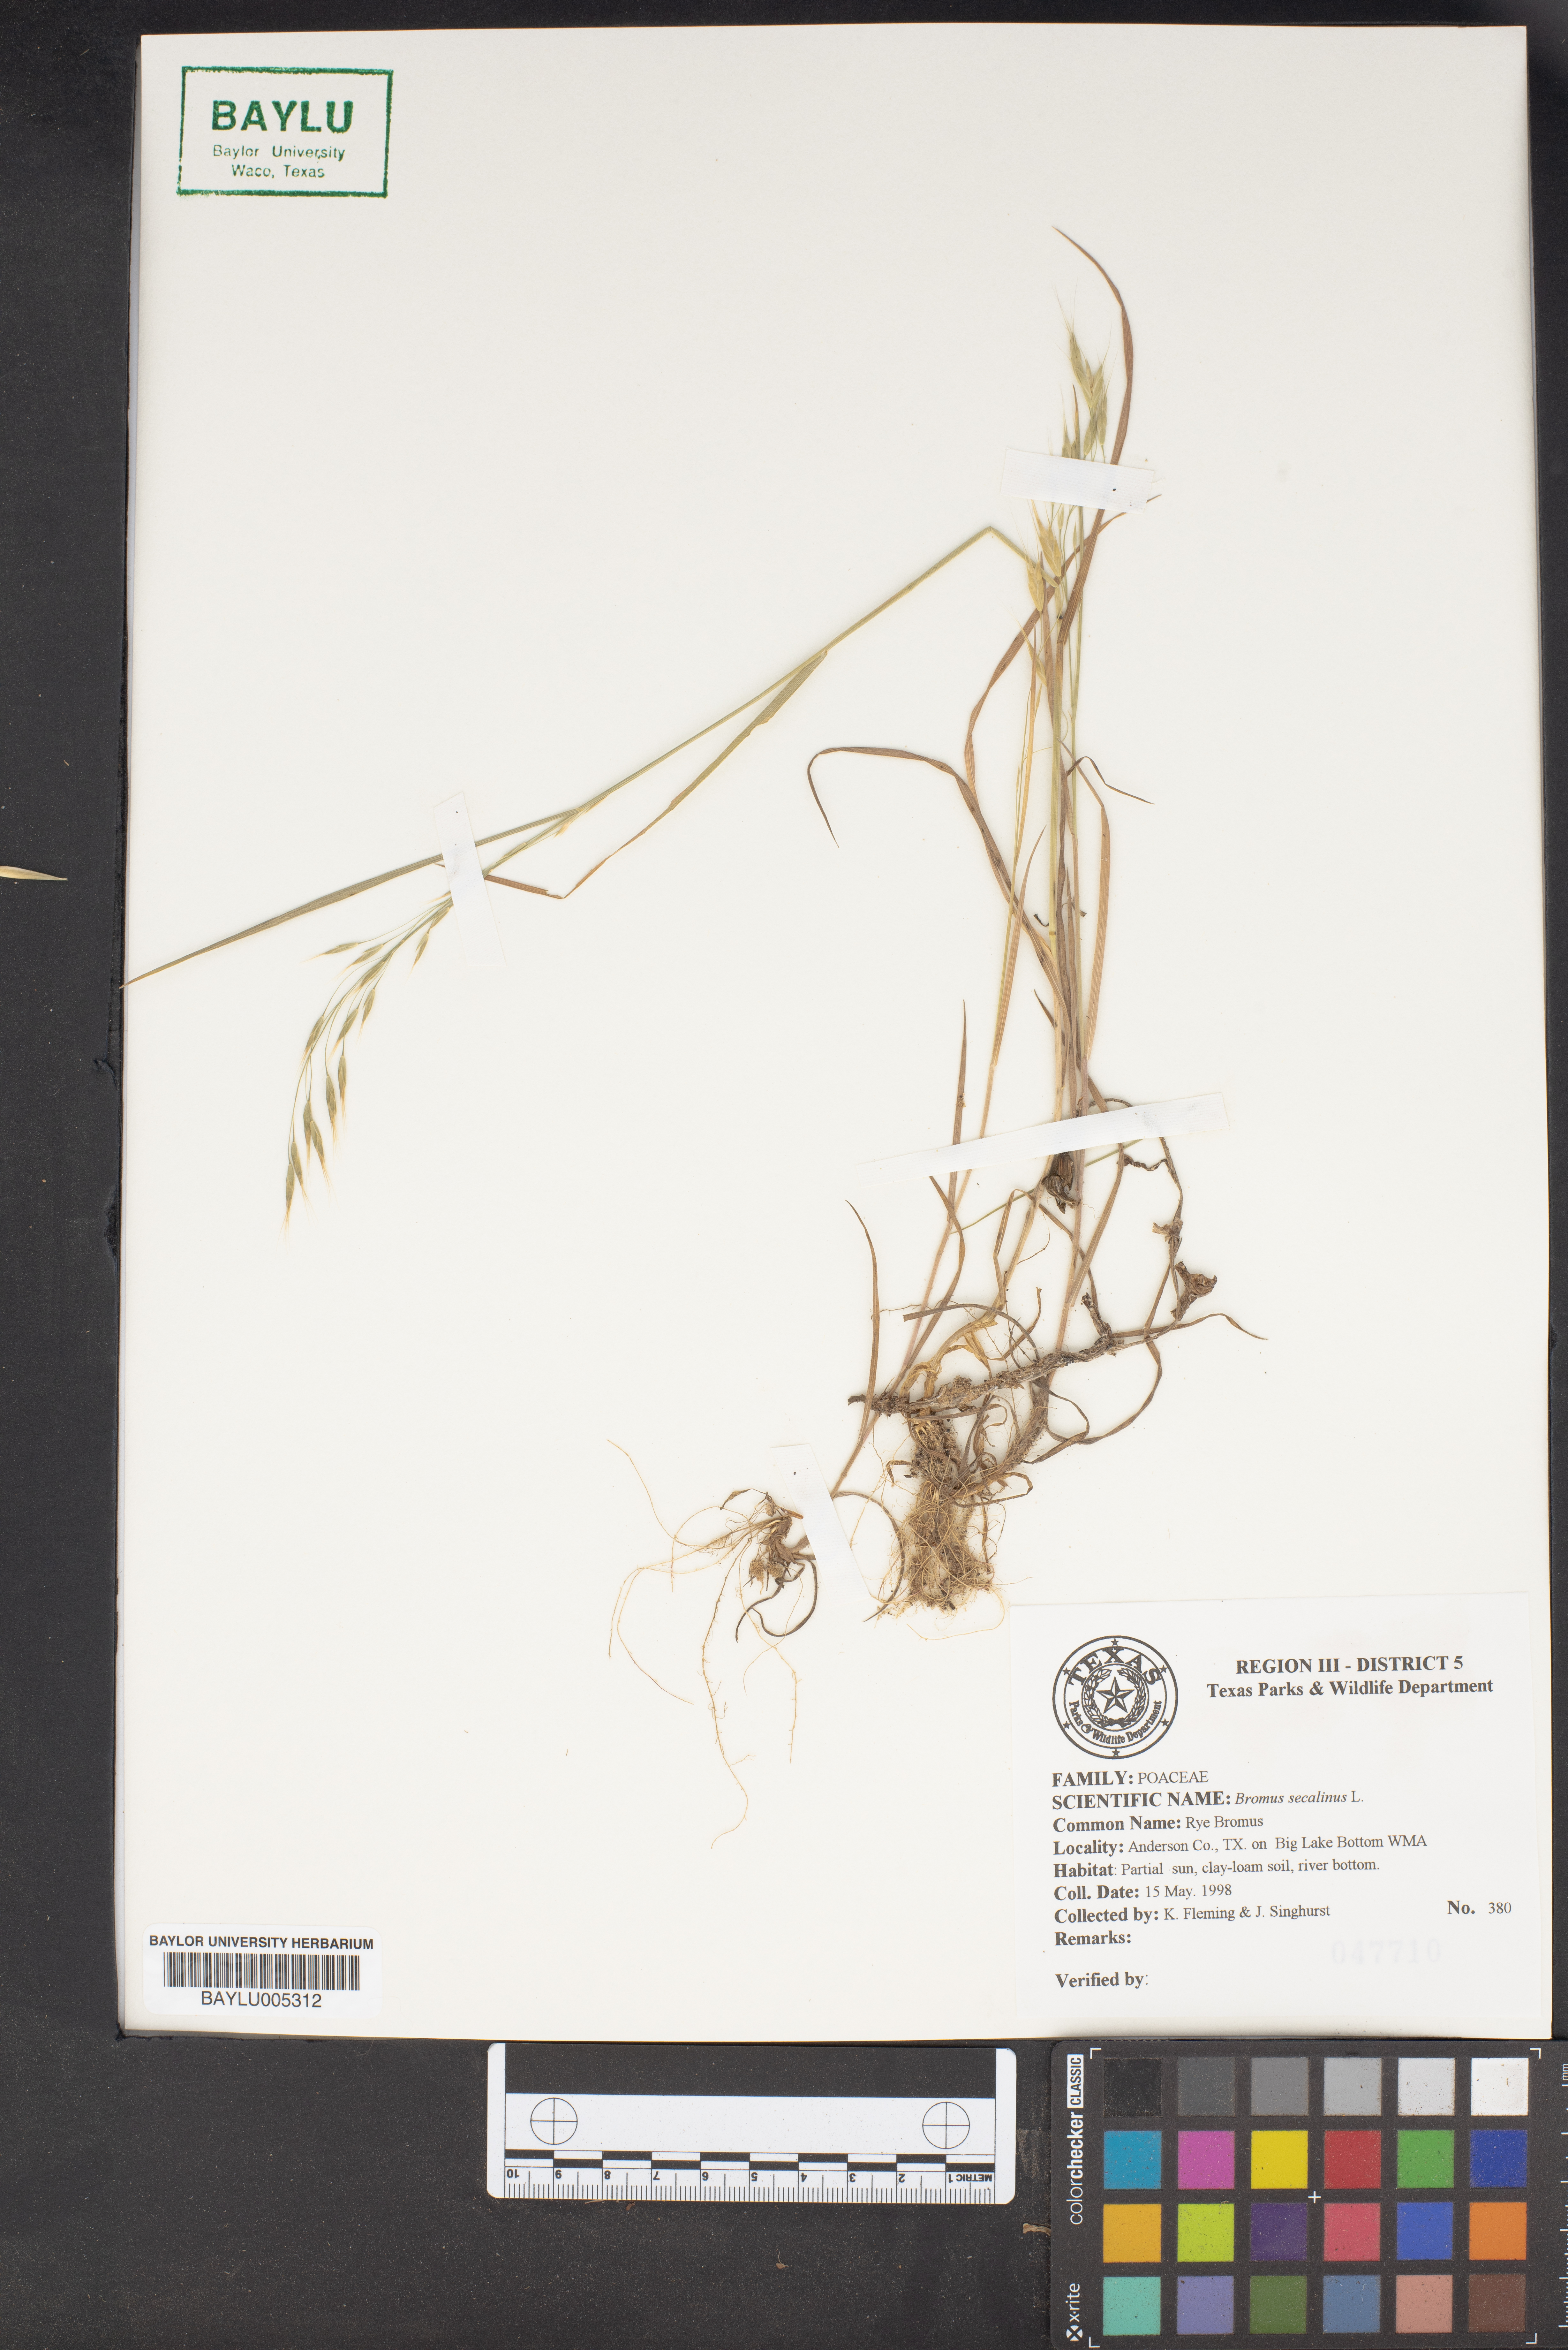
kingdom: Plantae
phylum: Tracheophyta
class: Liliopsida
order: Poales
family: Poaceae
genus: Bromus
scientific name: Bromus secalinus
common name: Rye brome
